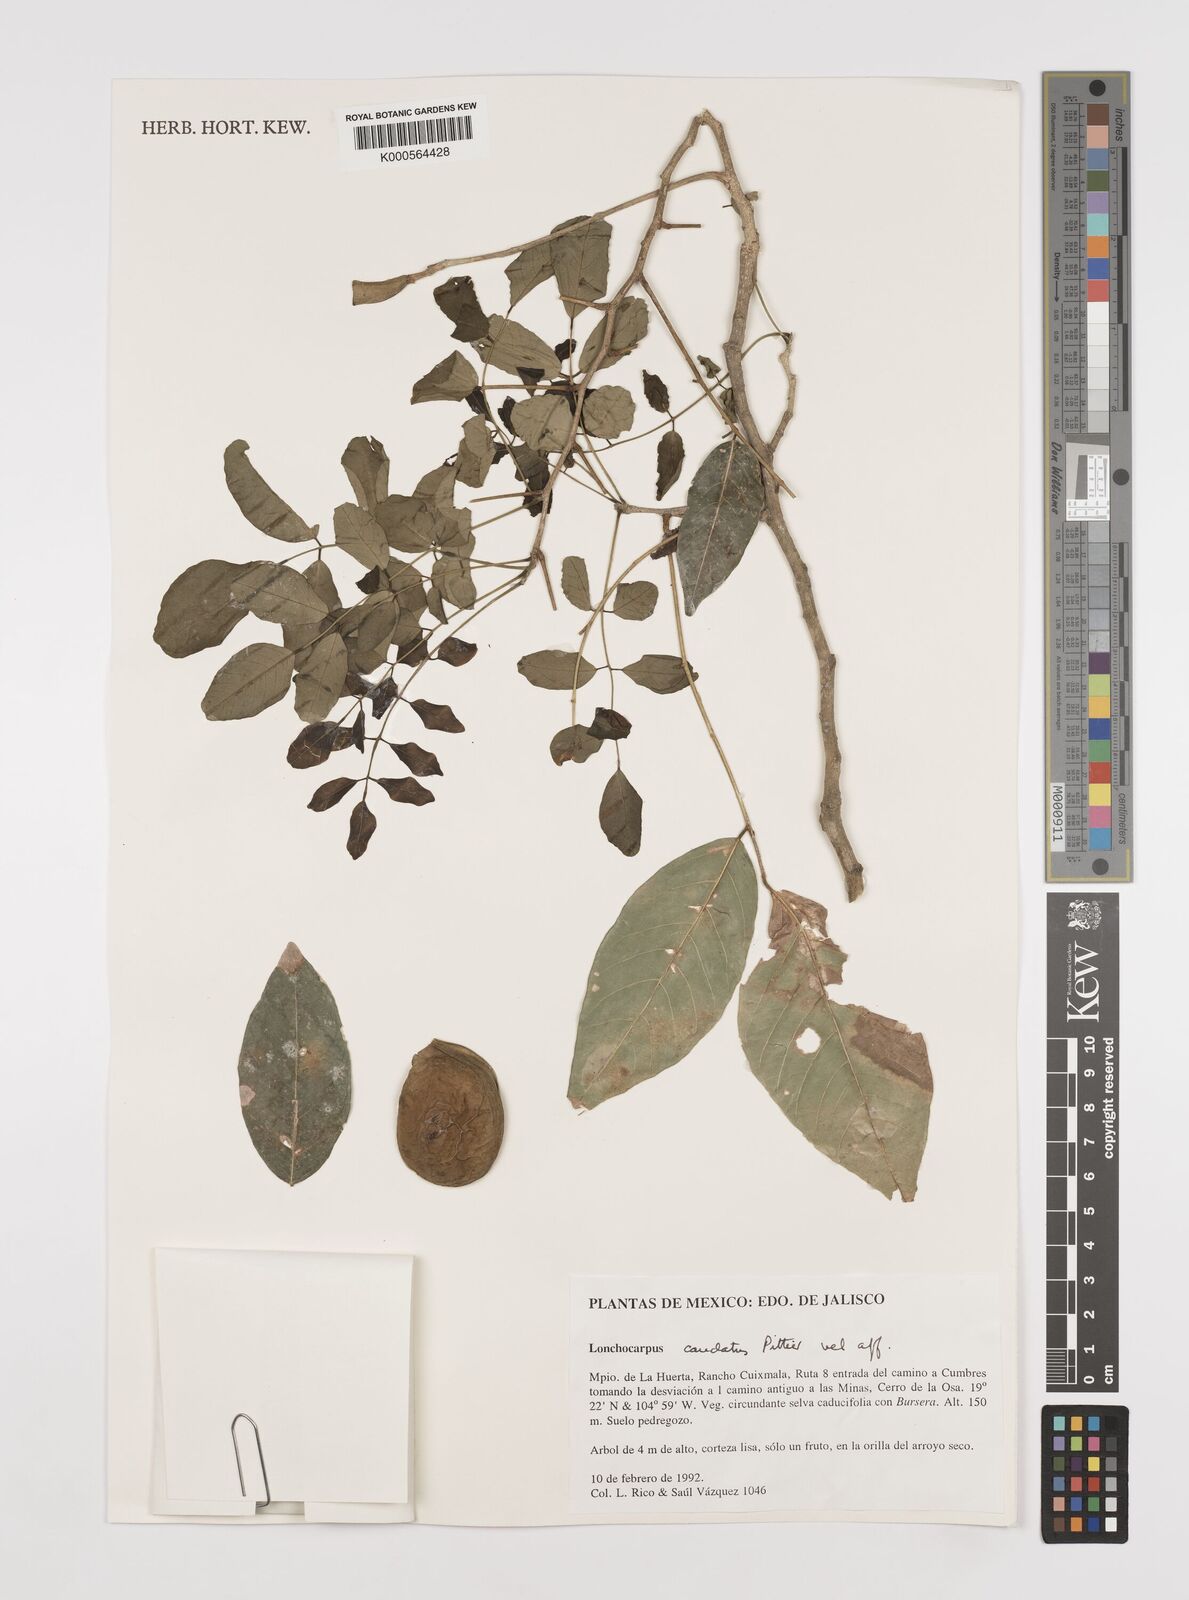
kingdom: Plantae
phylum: Tracheophyta
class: Magnoliopsida
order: Fabales
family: Fabaceae
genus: Lonchocarpus
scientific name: Lonchocarpus caudatus
